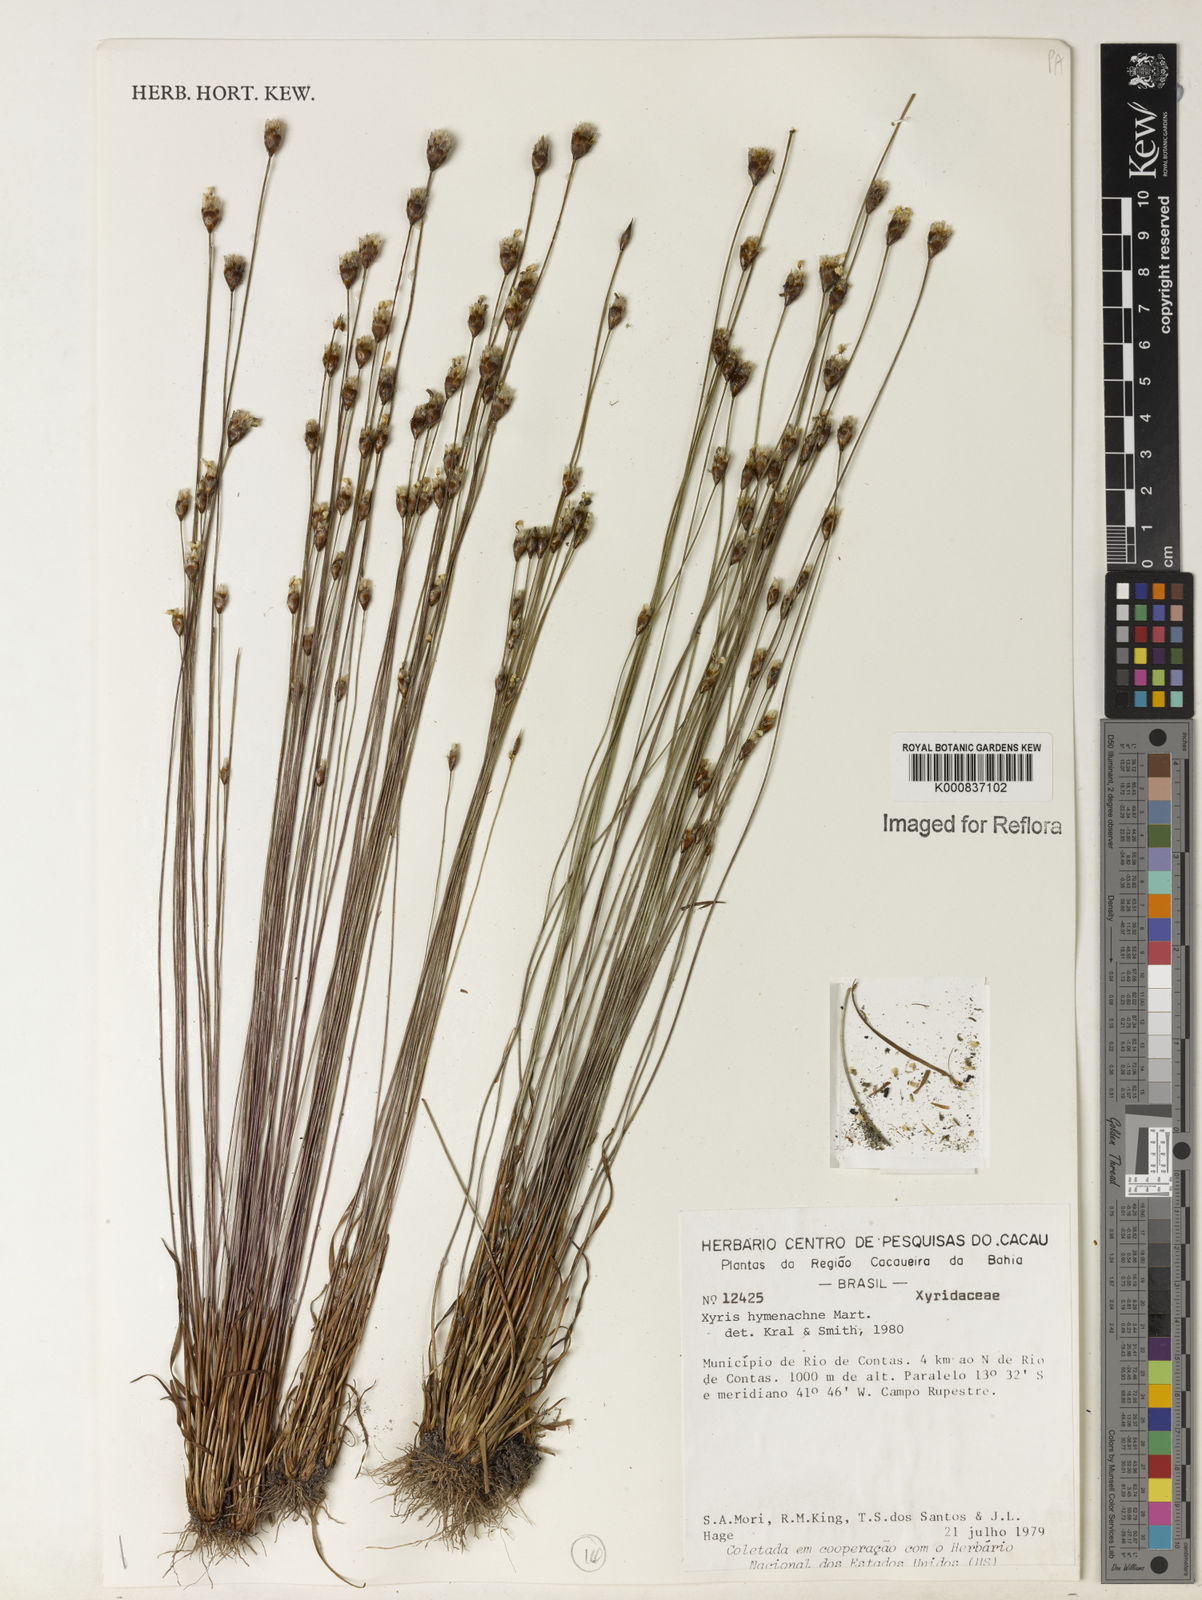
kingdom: Plantae
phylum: Tracheophyta
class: Liliopsida
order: Poales
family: Xyridaceae
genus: Xyris
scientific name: Xyris hymenachne
